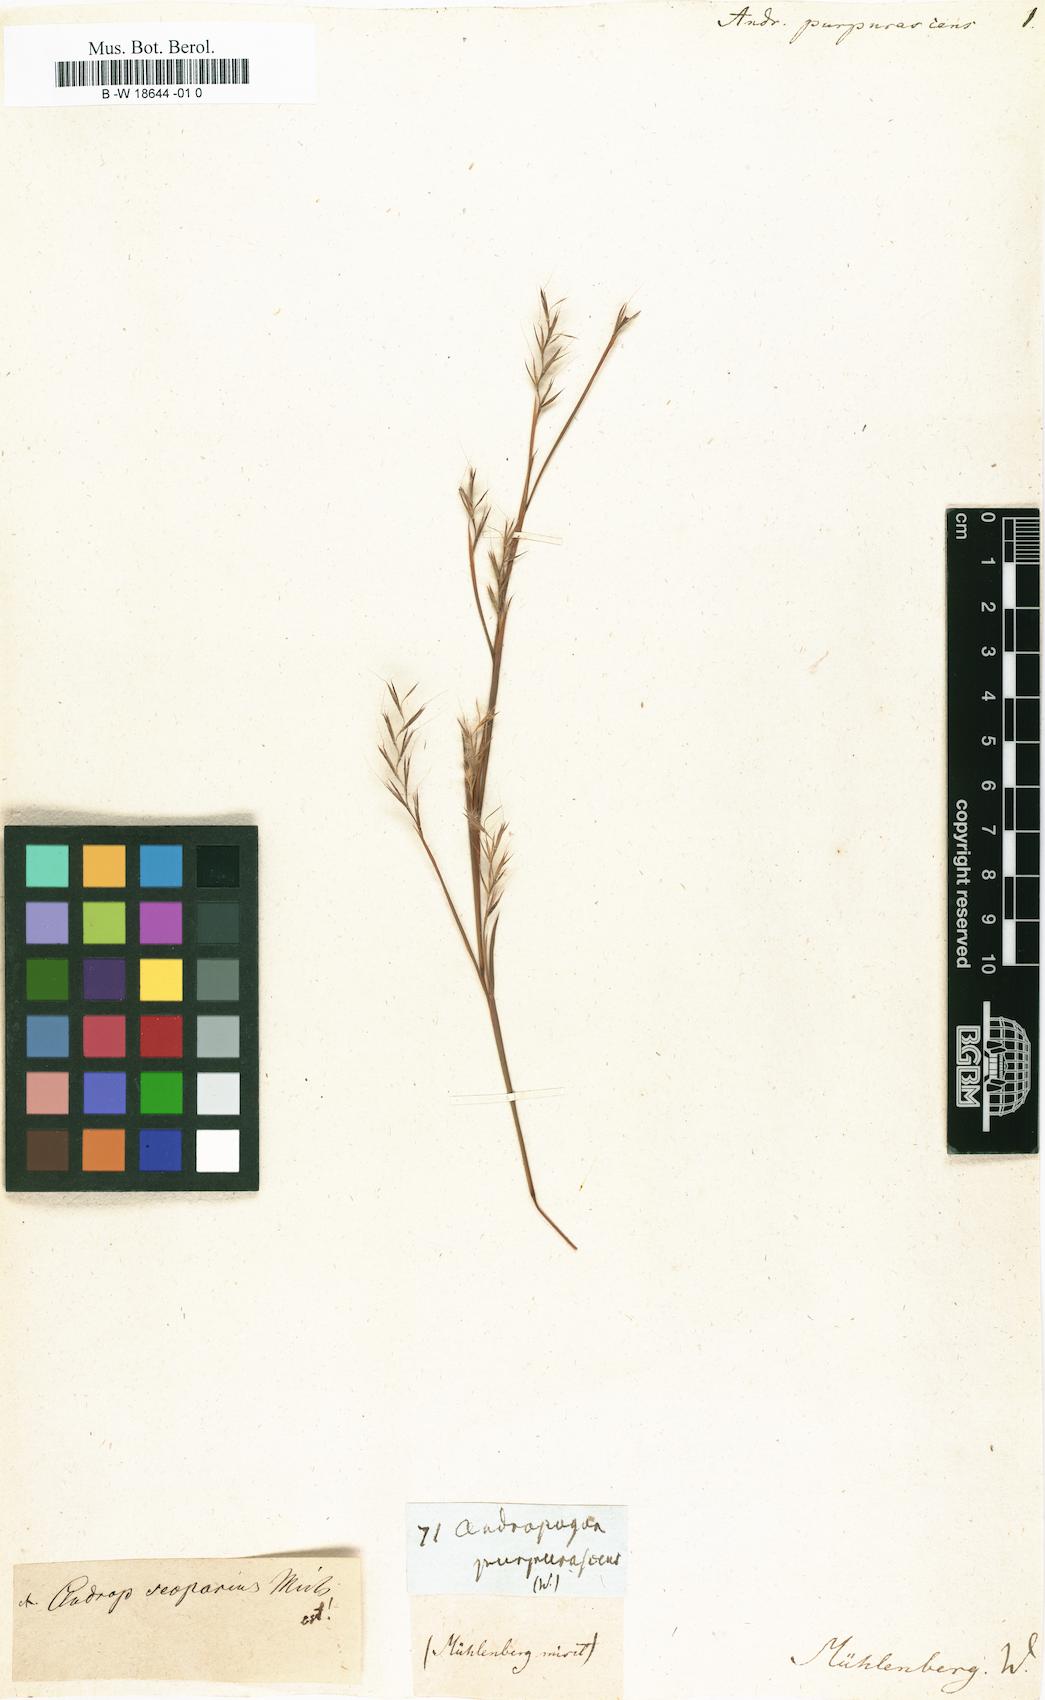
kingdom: Plantae
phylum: Tracheophyta
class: Liliopsida
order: Poales
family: Poaceae
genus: Schizachyrium
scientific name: Schizachyrium scoparium
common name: Little bluestem
